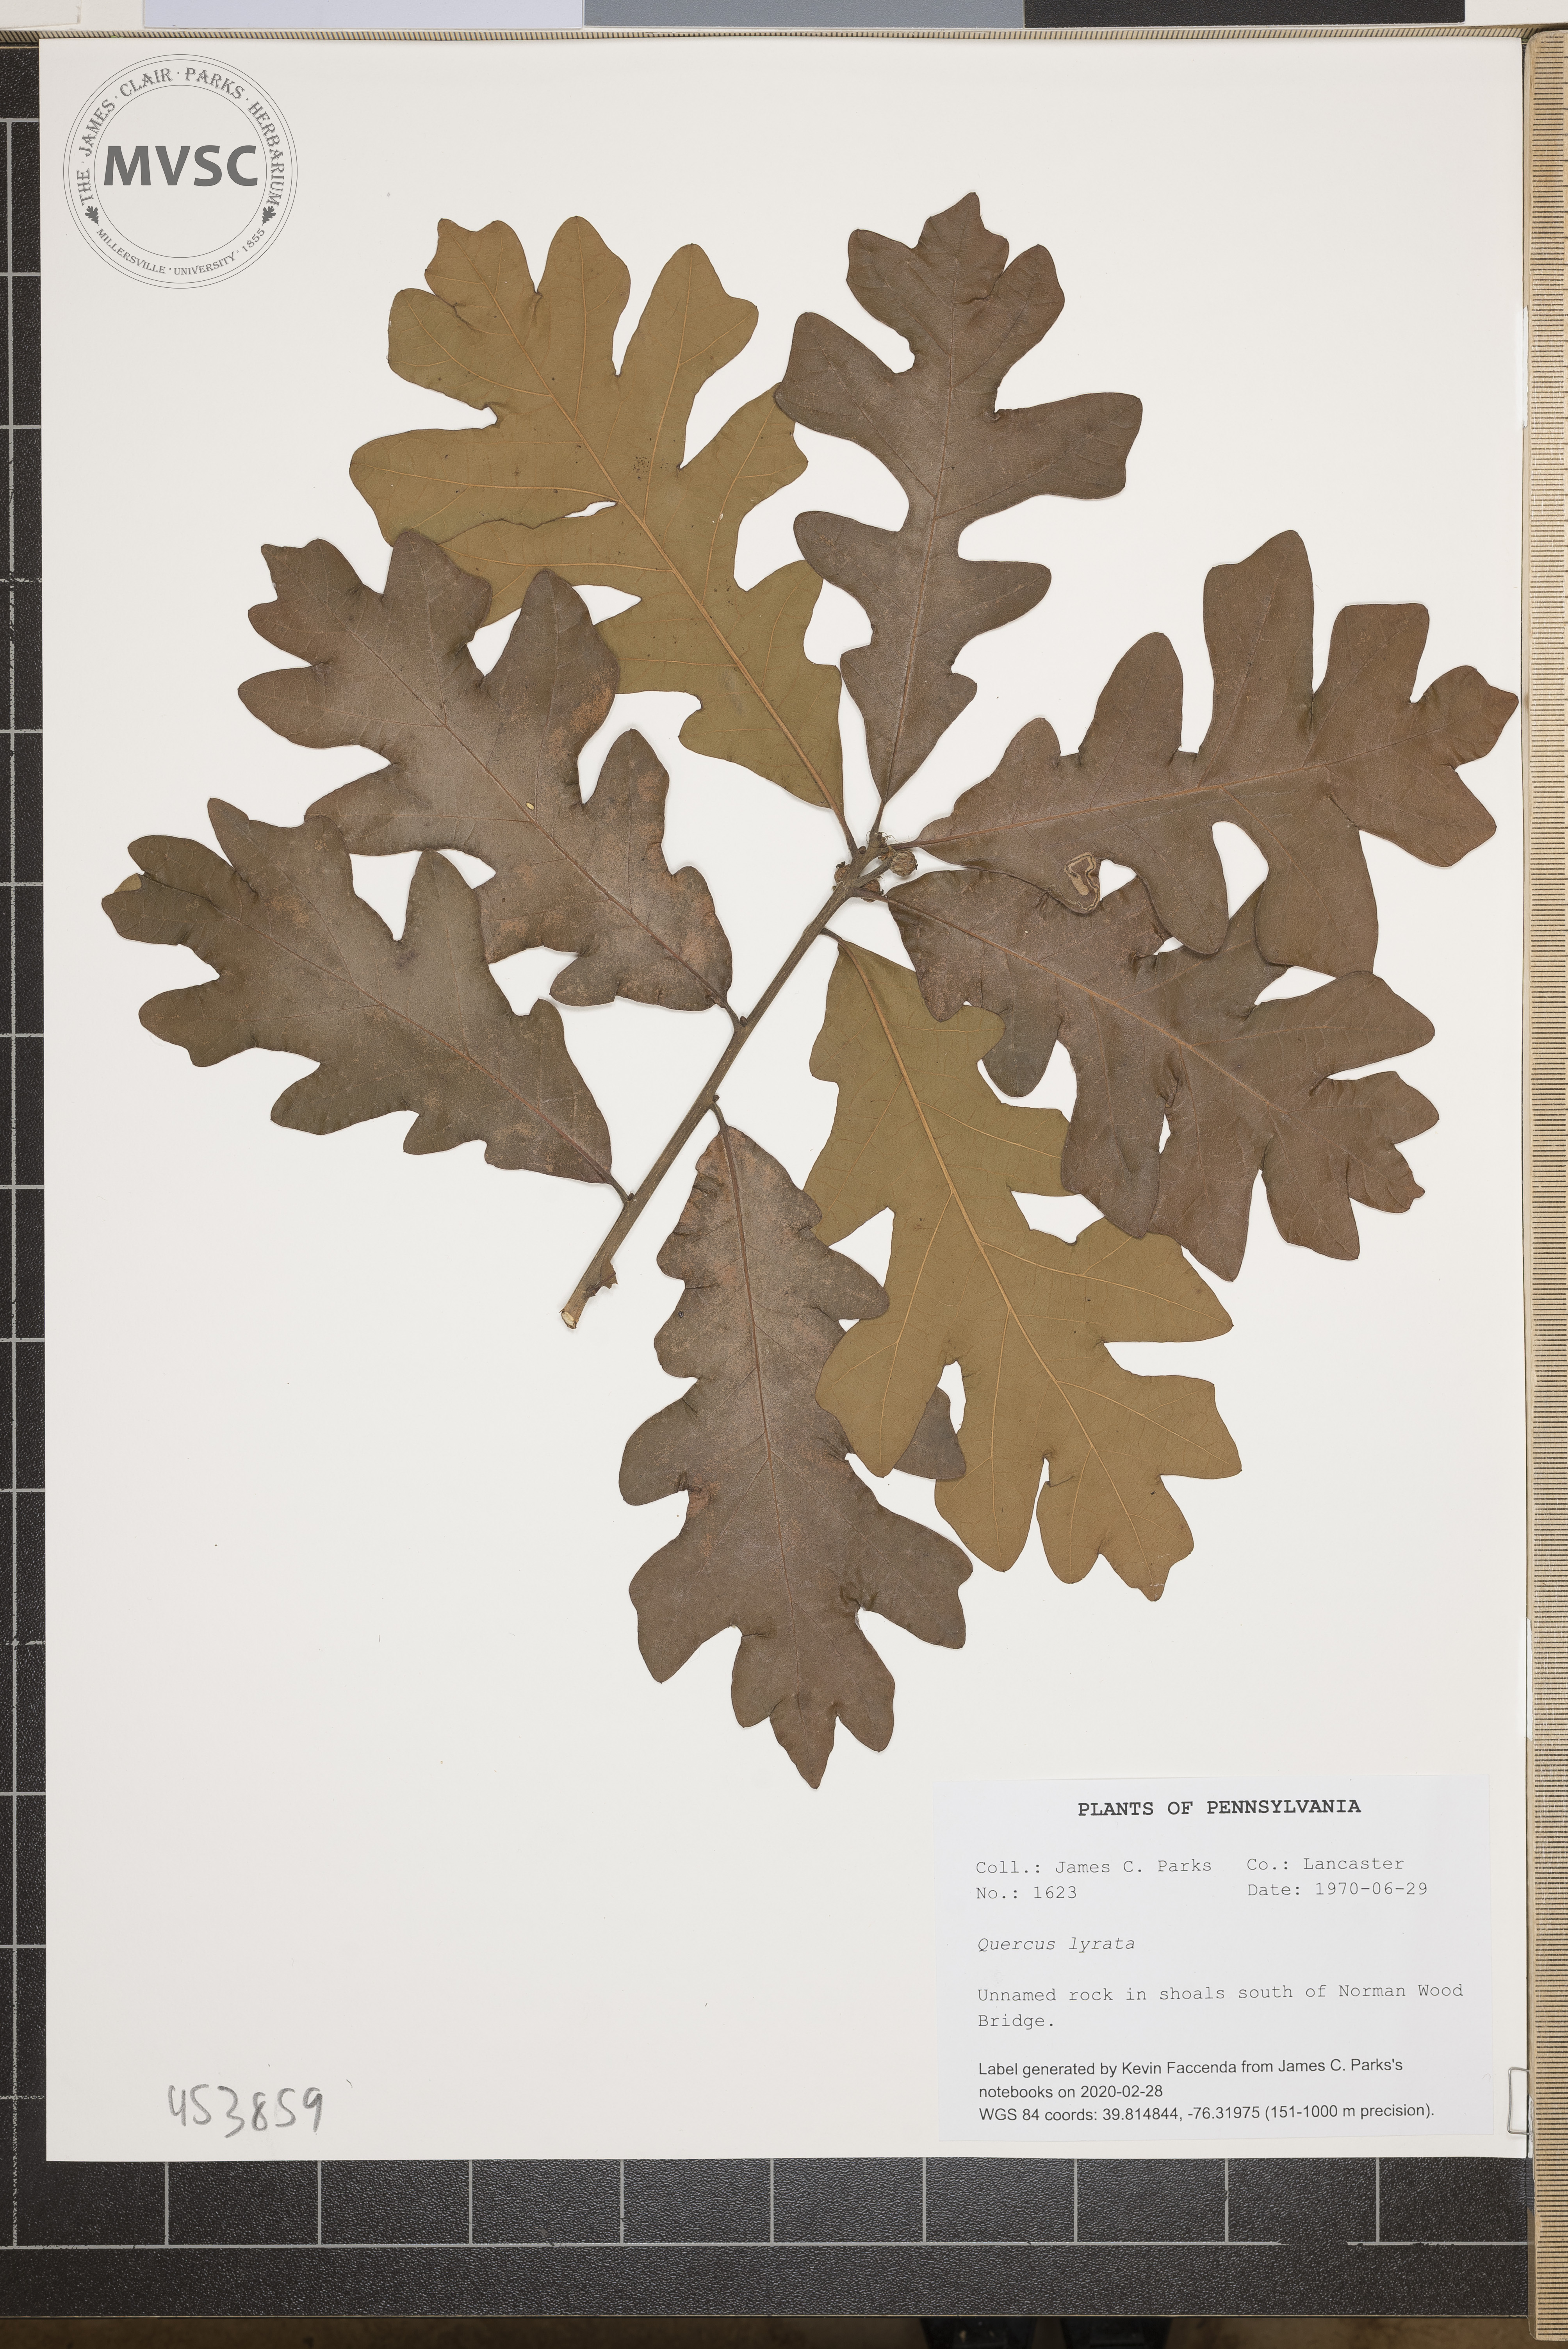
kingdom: Plantae
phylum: Tracheophyta
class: Magnoliopsida
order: Fagales
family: Fagaceae
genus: Quercus
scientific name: Quercus lyrata
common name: Overcup oak
